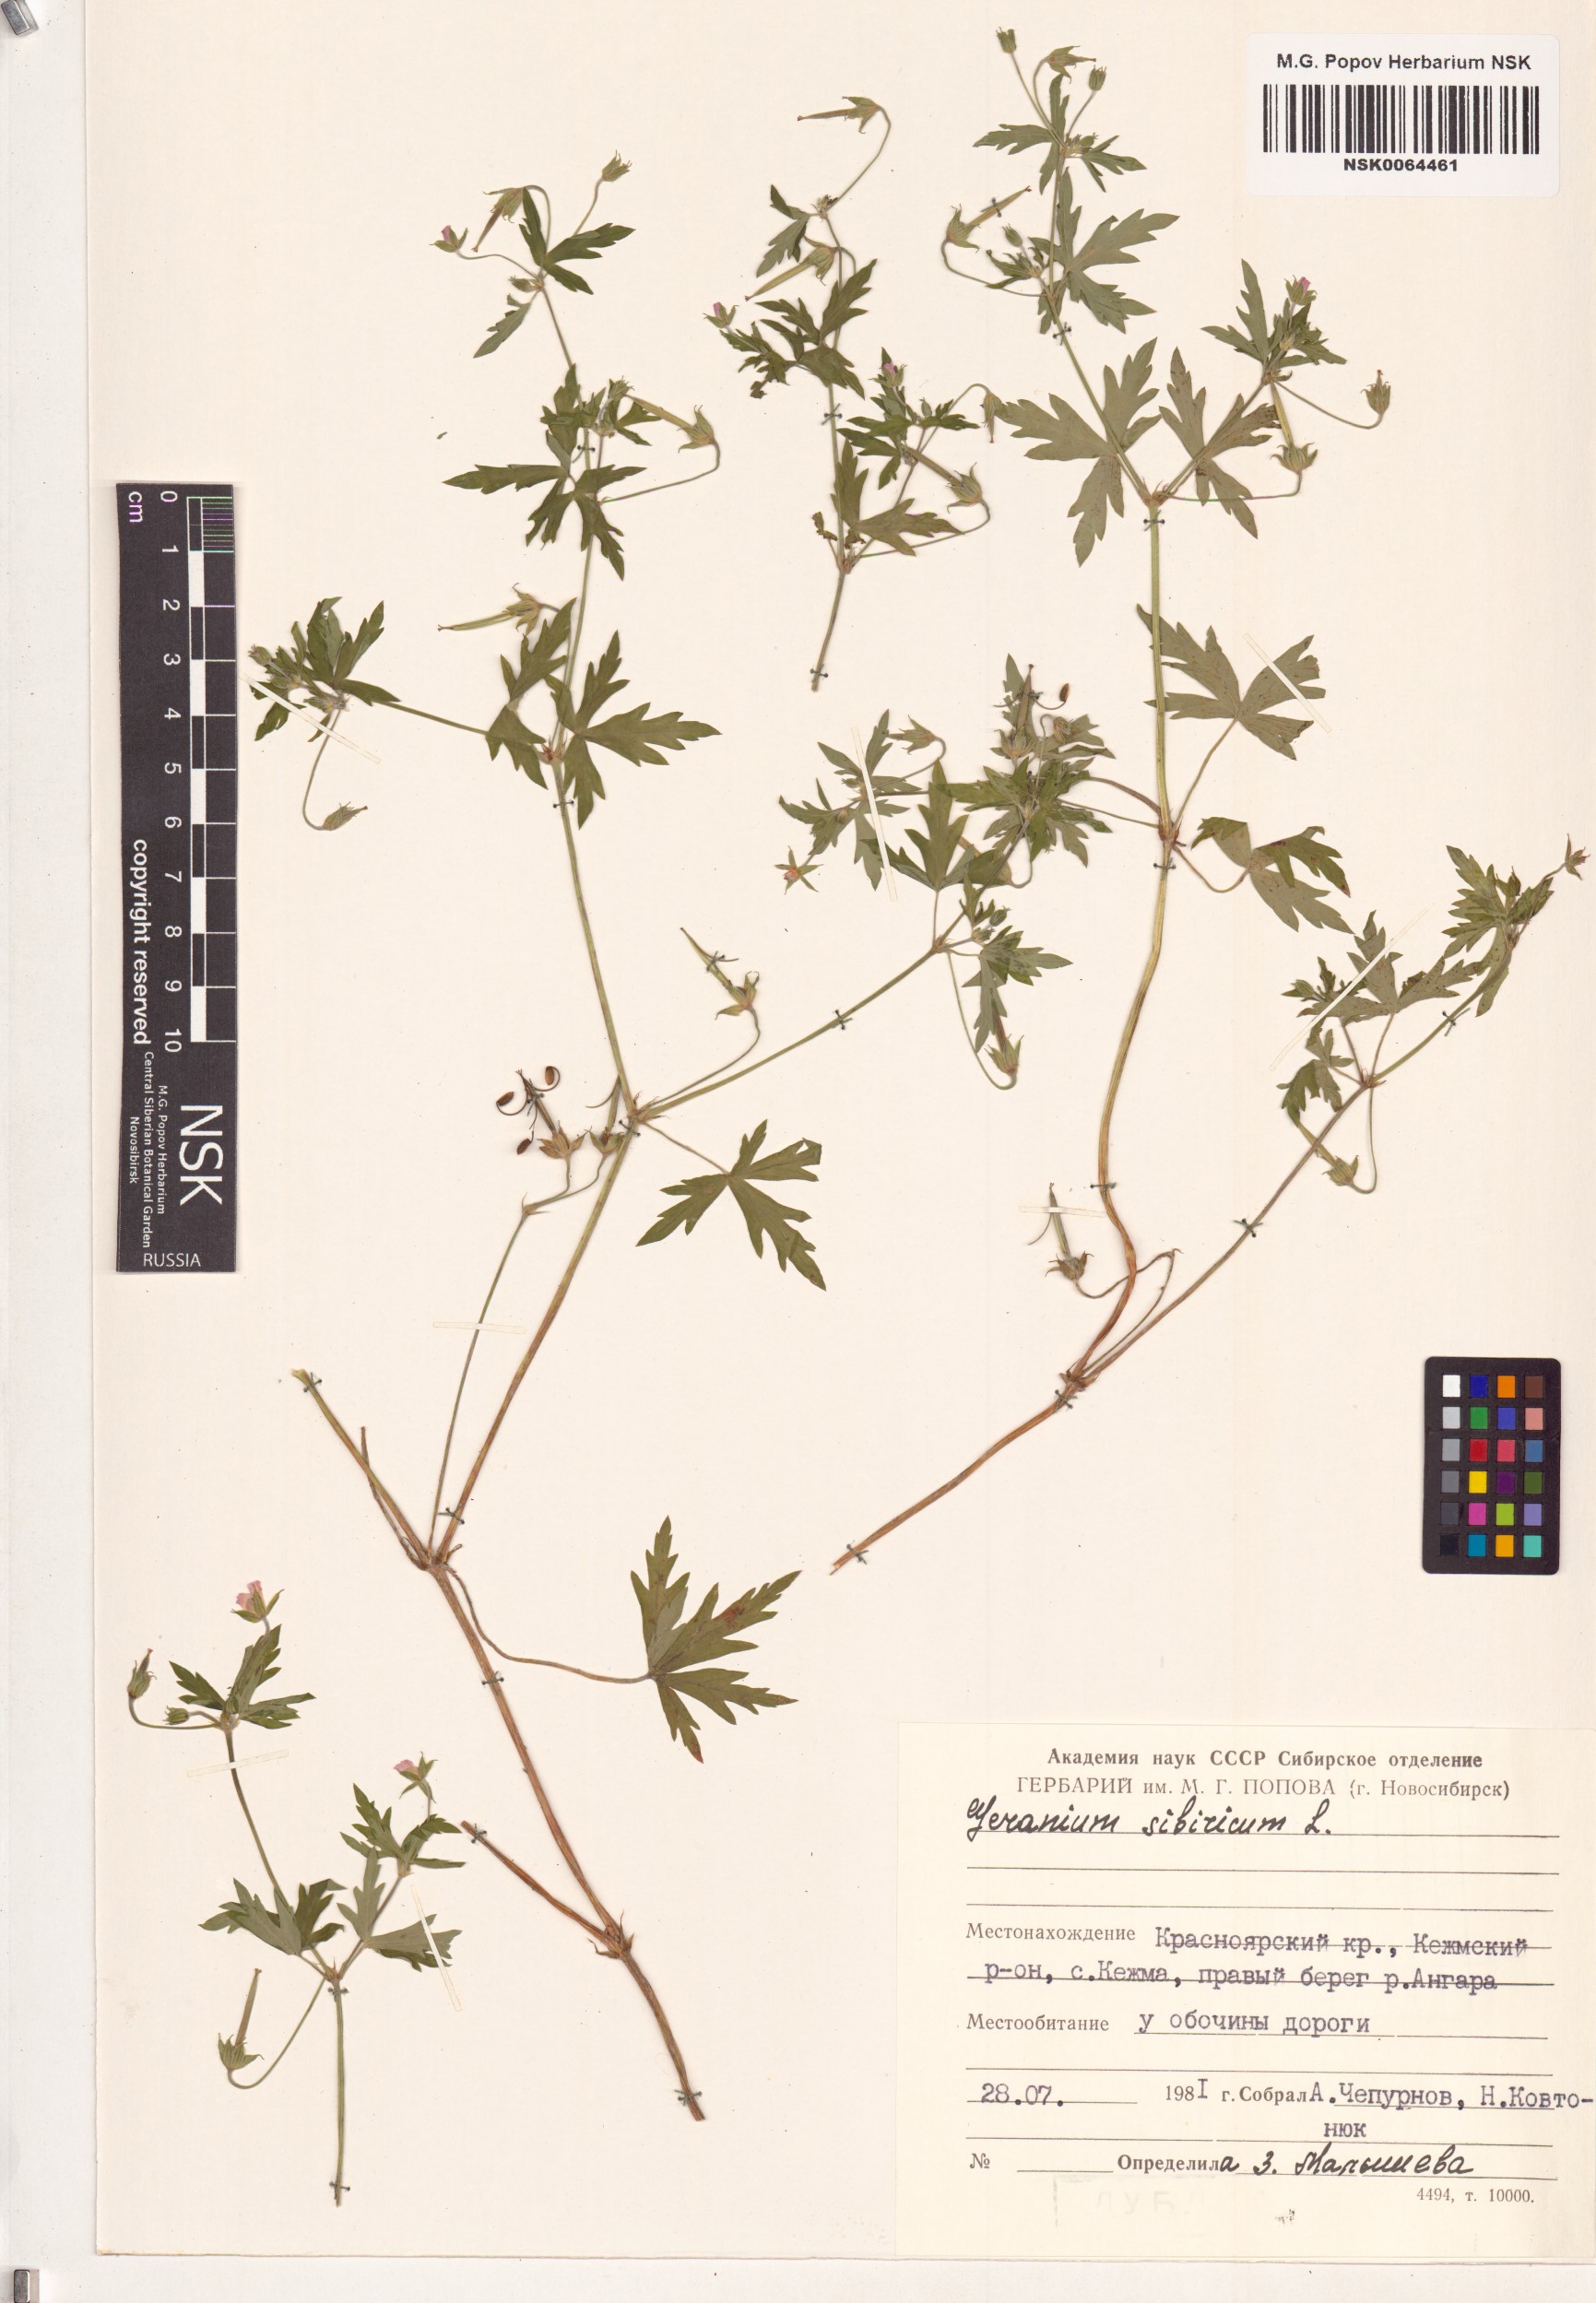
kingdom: Plantae
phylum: Tracheophyta
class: Magnoliopsida
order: Geraniales
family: Geraniaceae
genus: Geranium
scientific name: Geranium sibiricum
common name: Siberian crane's-bill
